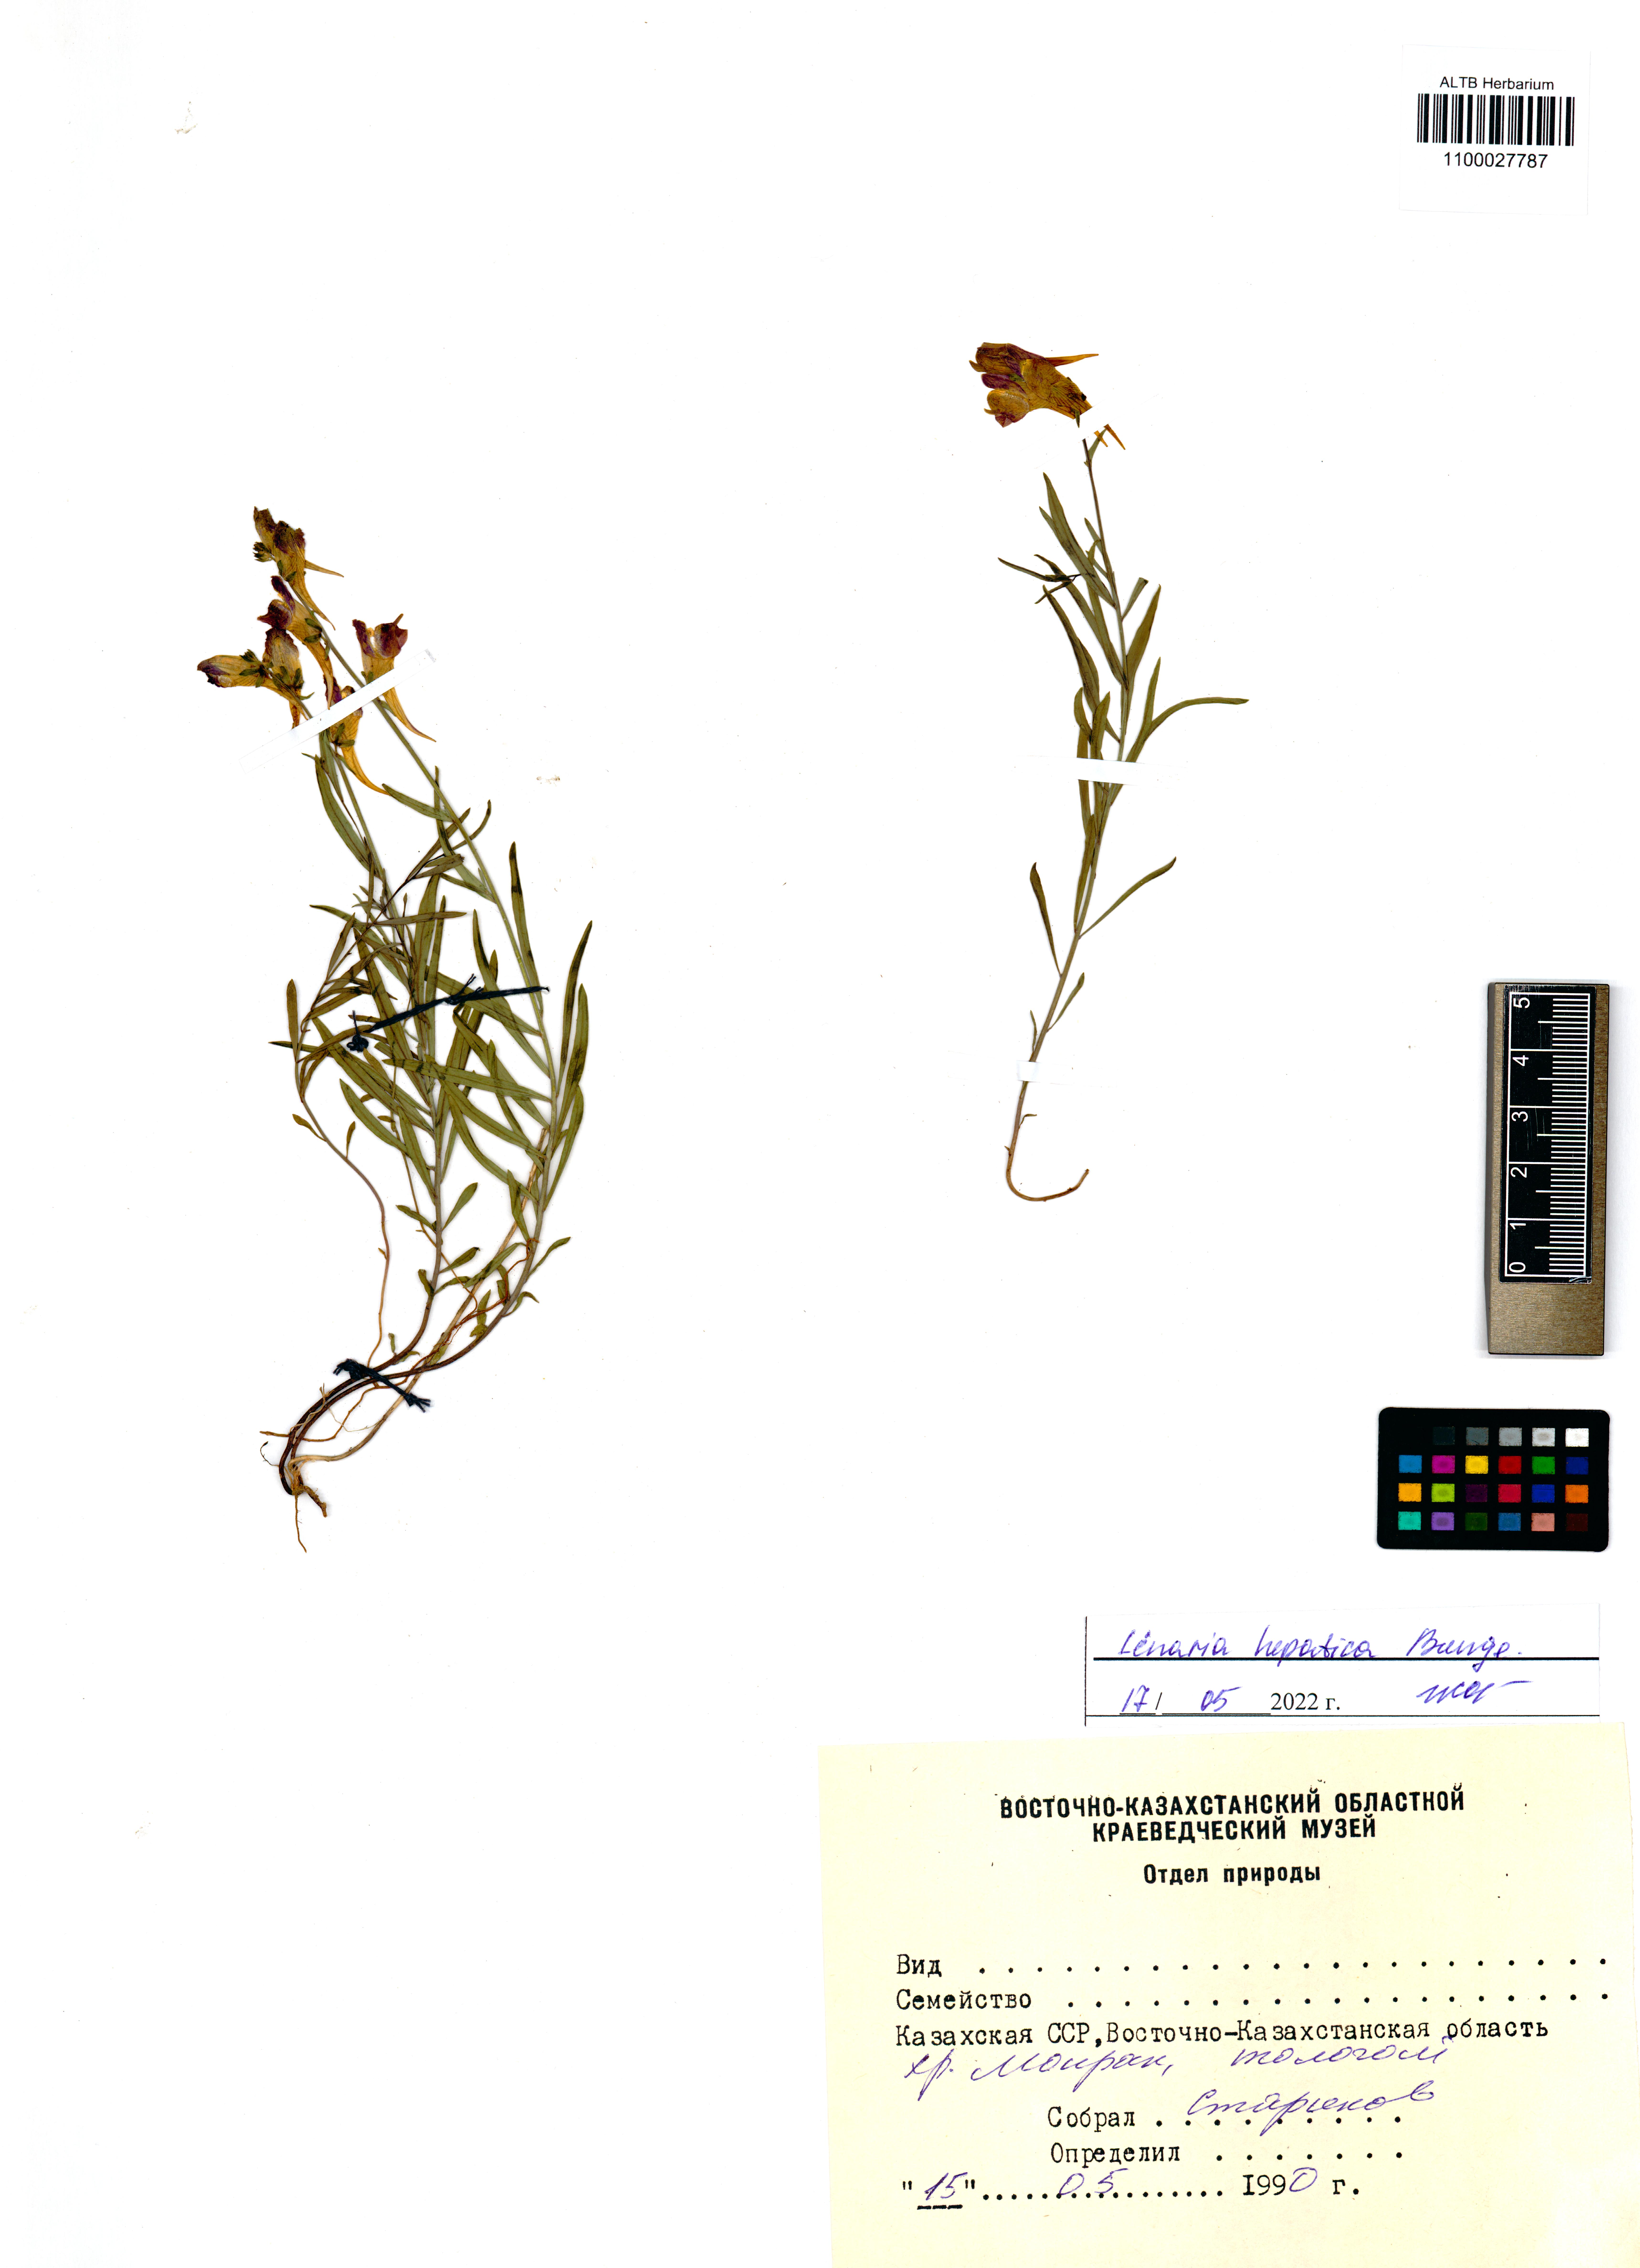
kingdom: Plantae
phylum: Tracheophyta
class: Magnoliopsida
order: Lamiales
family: Plantaginaceae
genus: Linaria
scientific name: Linaria hepatica
